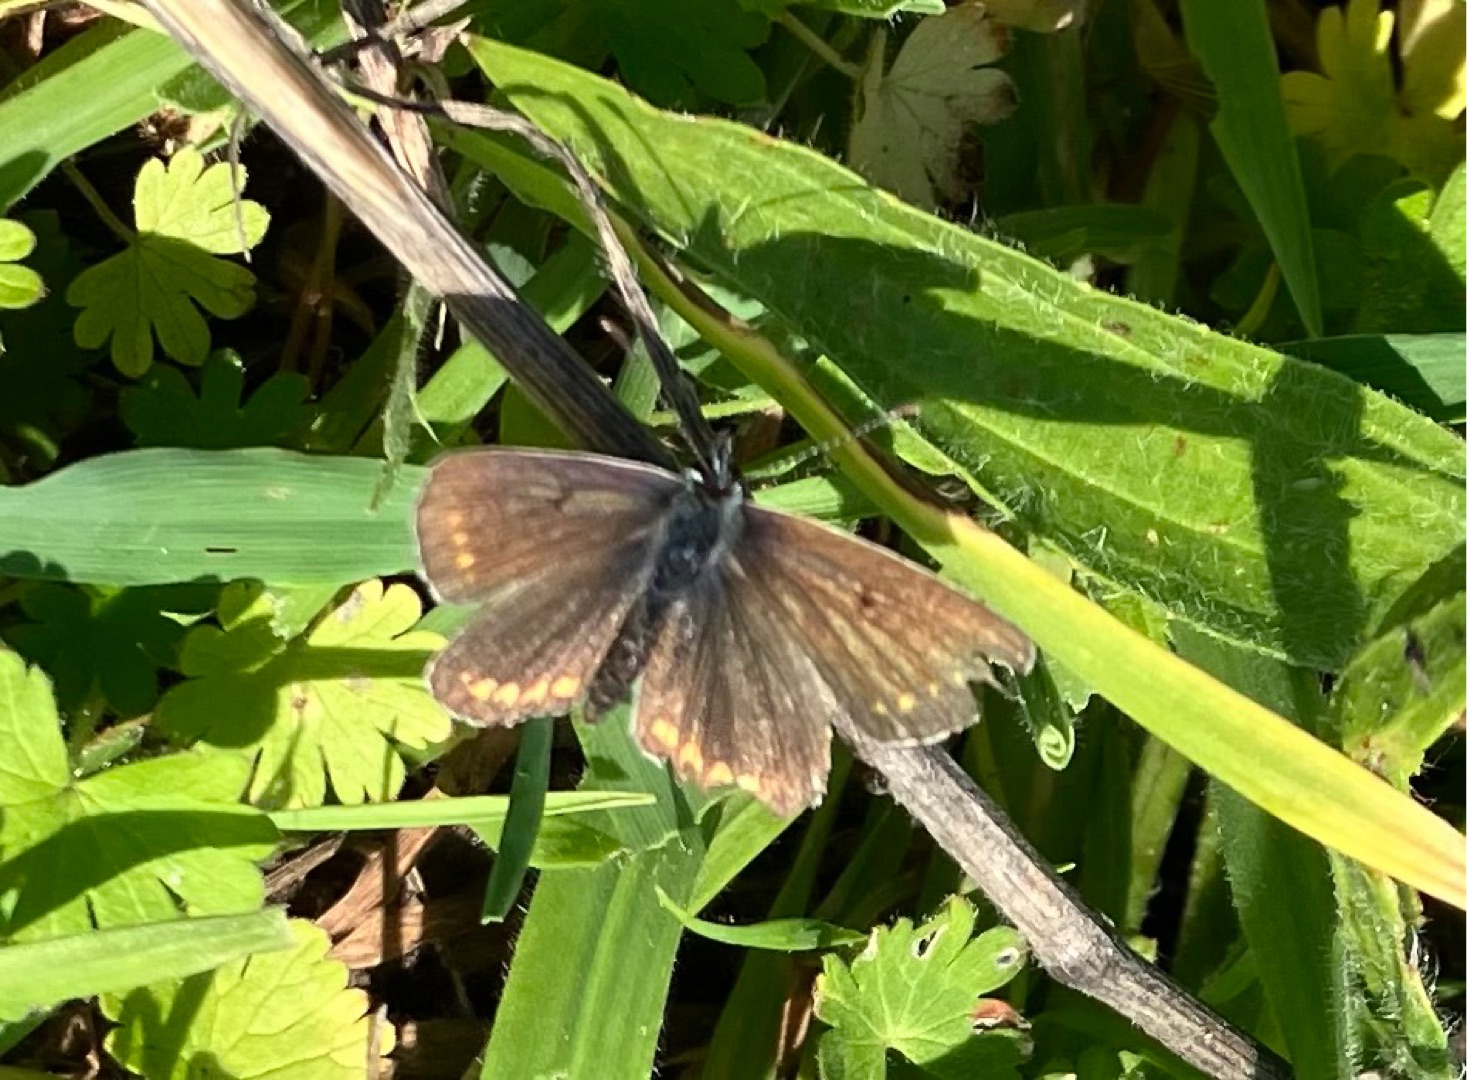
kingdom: Animalia
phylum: Arthropoda
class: Insecta
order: Lepidoptera
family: Lycaenidae
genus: Aricia
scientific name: Aricia agestis
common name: Rødplettet blåfugl
